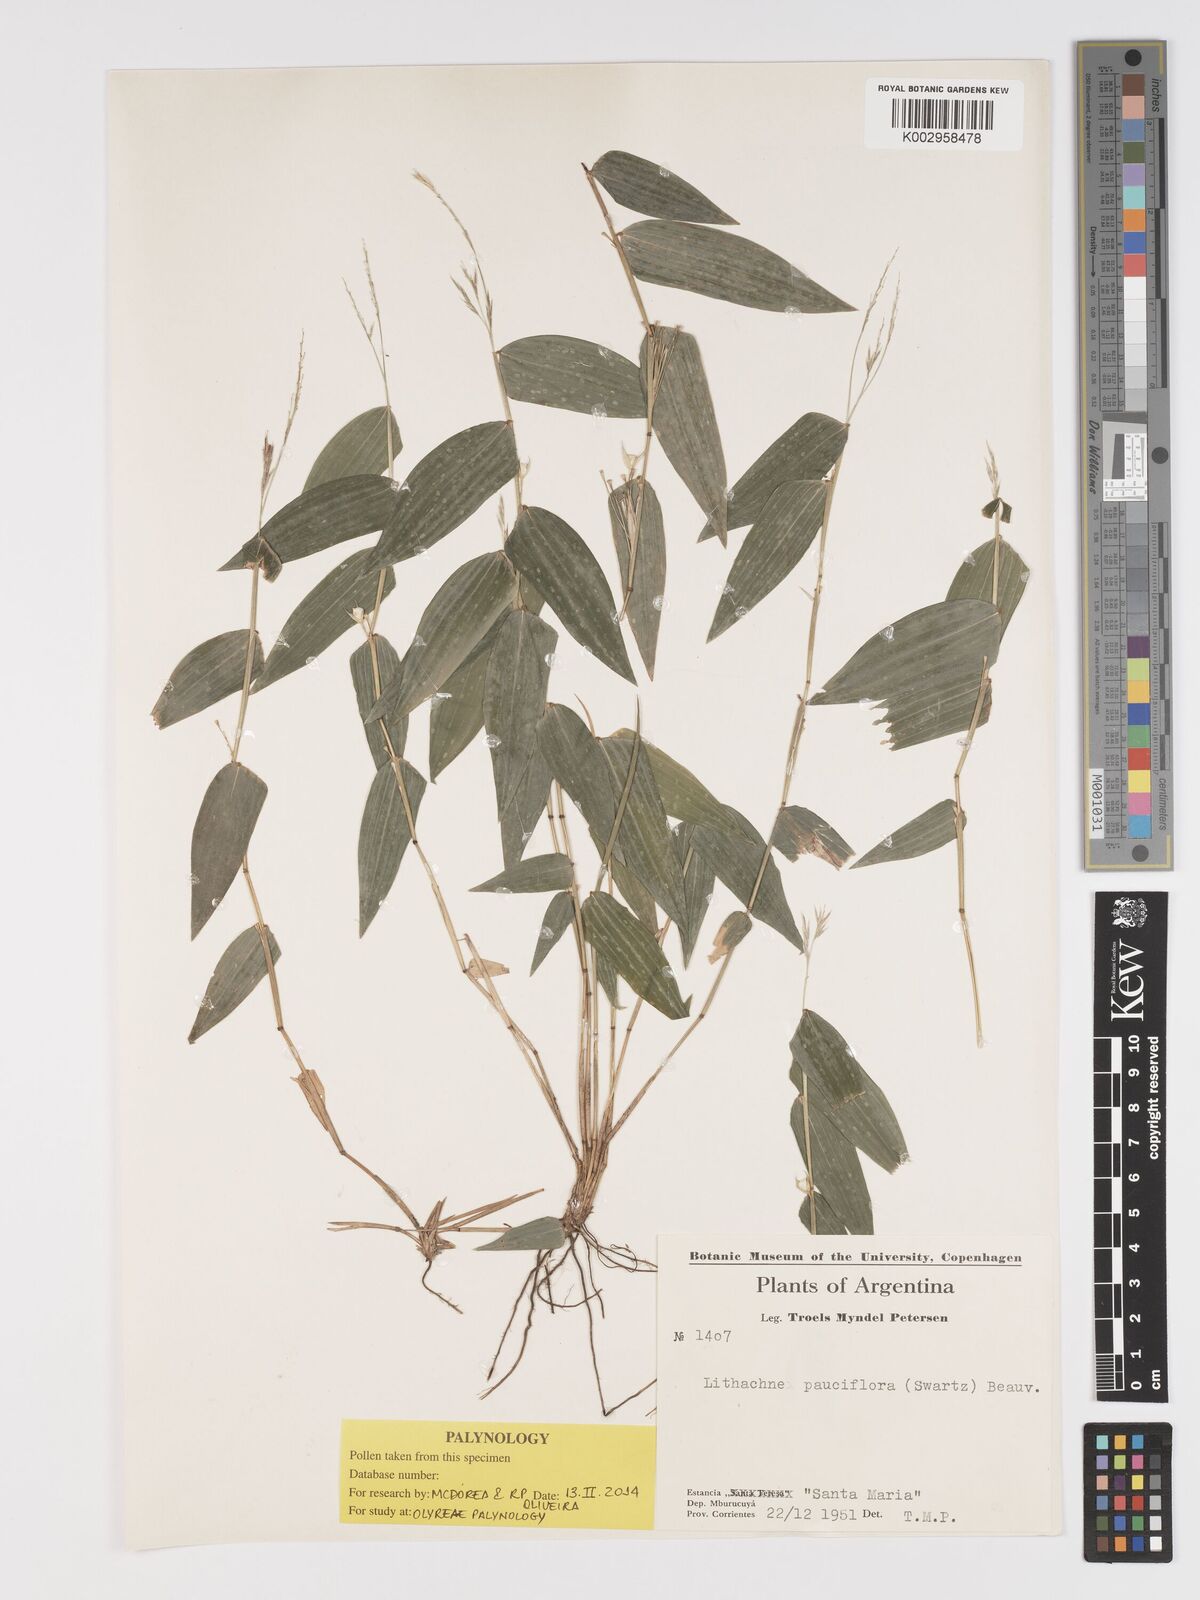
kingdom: Plantae
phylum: Tracheophyta
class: Liliopsida
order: Poales
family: Poaceae
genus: Lithachne
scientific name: Lithachne pauciflora
